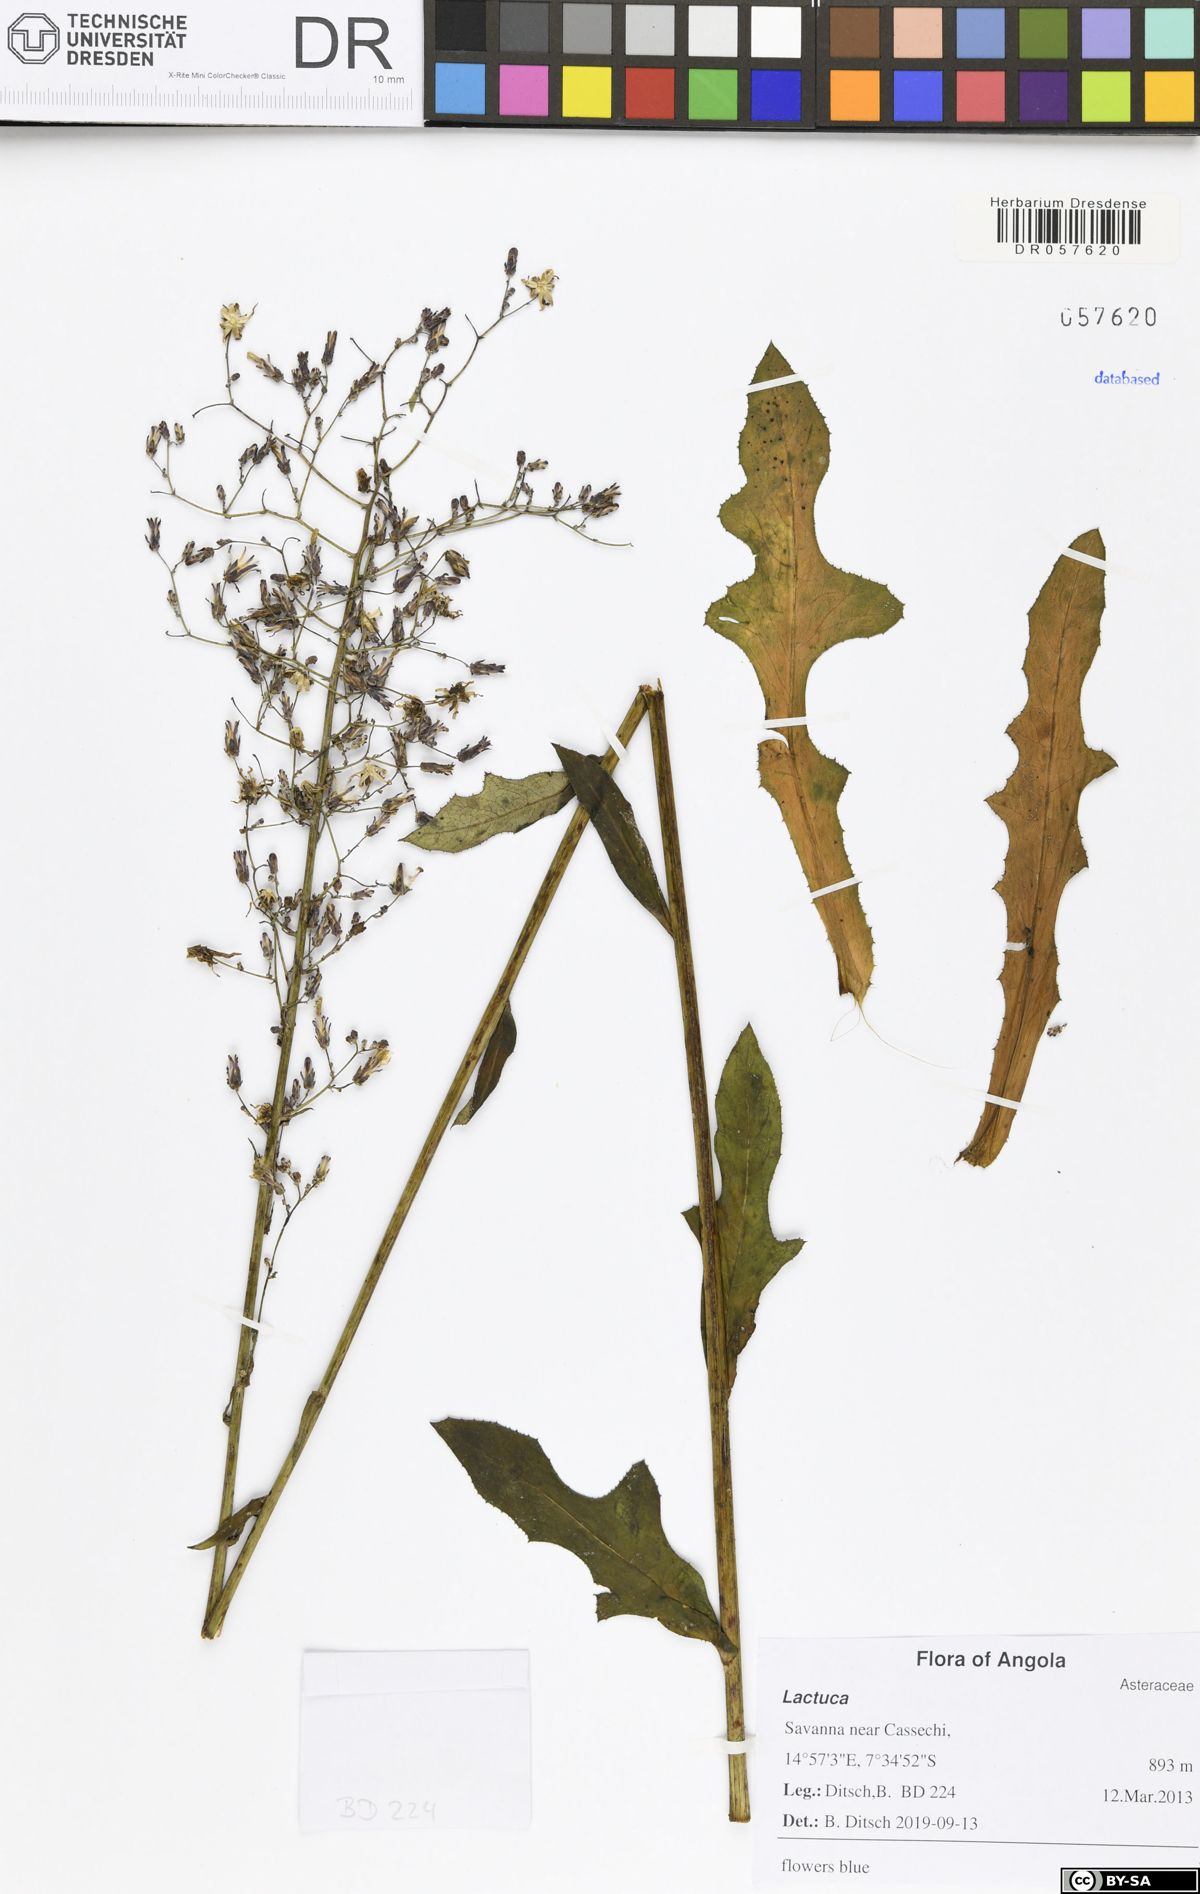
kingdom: Plantae
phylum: Tracheophyta
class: Magnoliopsida
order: Asterales
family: Asteraceae
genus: Lactuca
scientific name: Lactuca schulzeana
